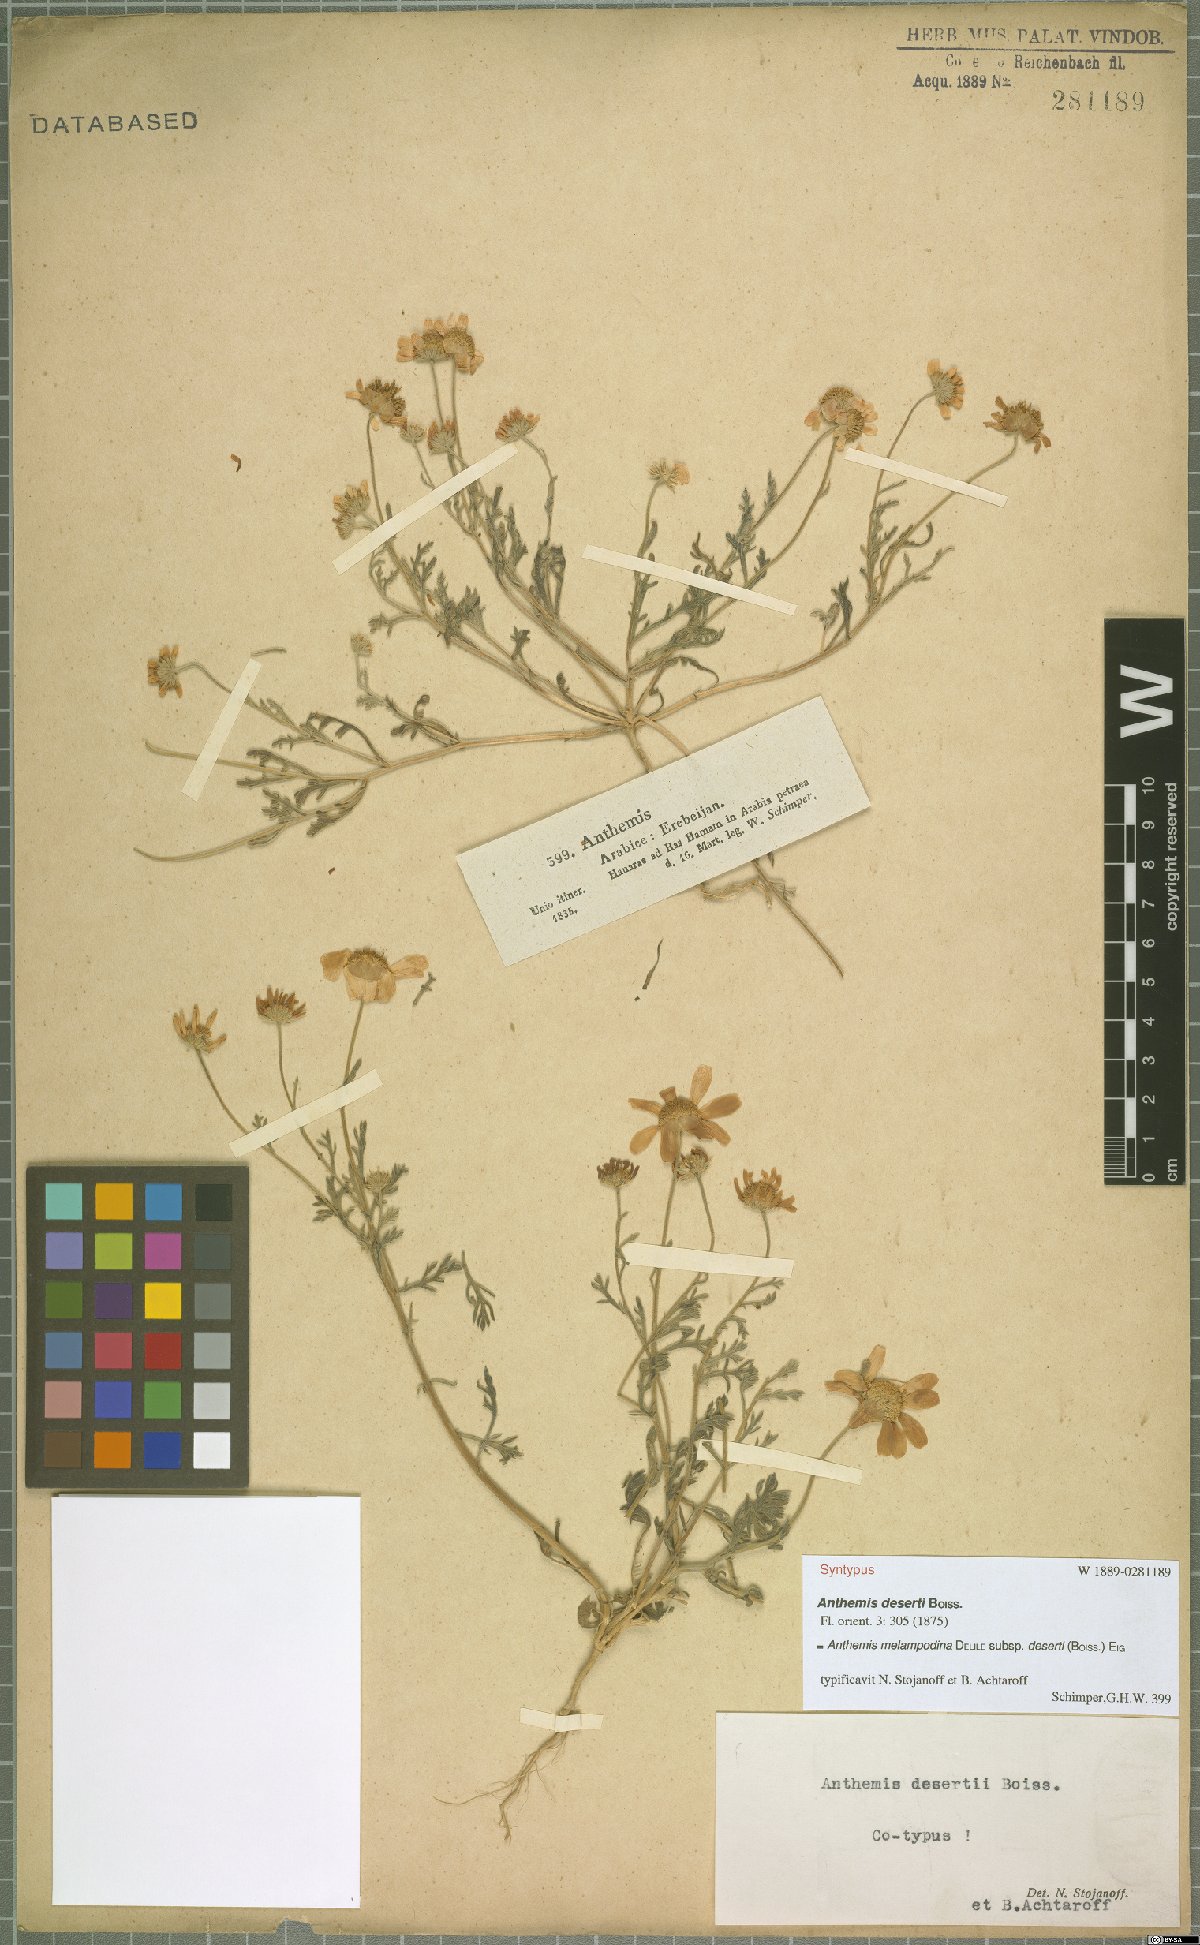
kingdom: Plantae
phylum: Tracheophyta
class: Magnoliopsida
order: Asterales
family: Asteraceae
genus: Anthemis
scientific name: Anthemis deserti
